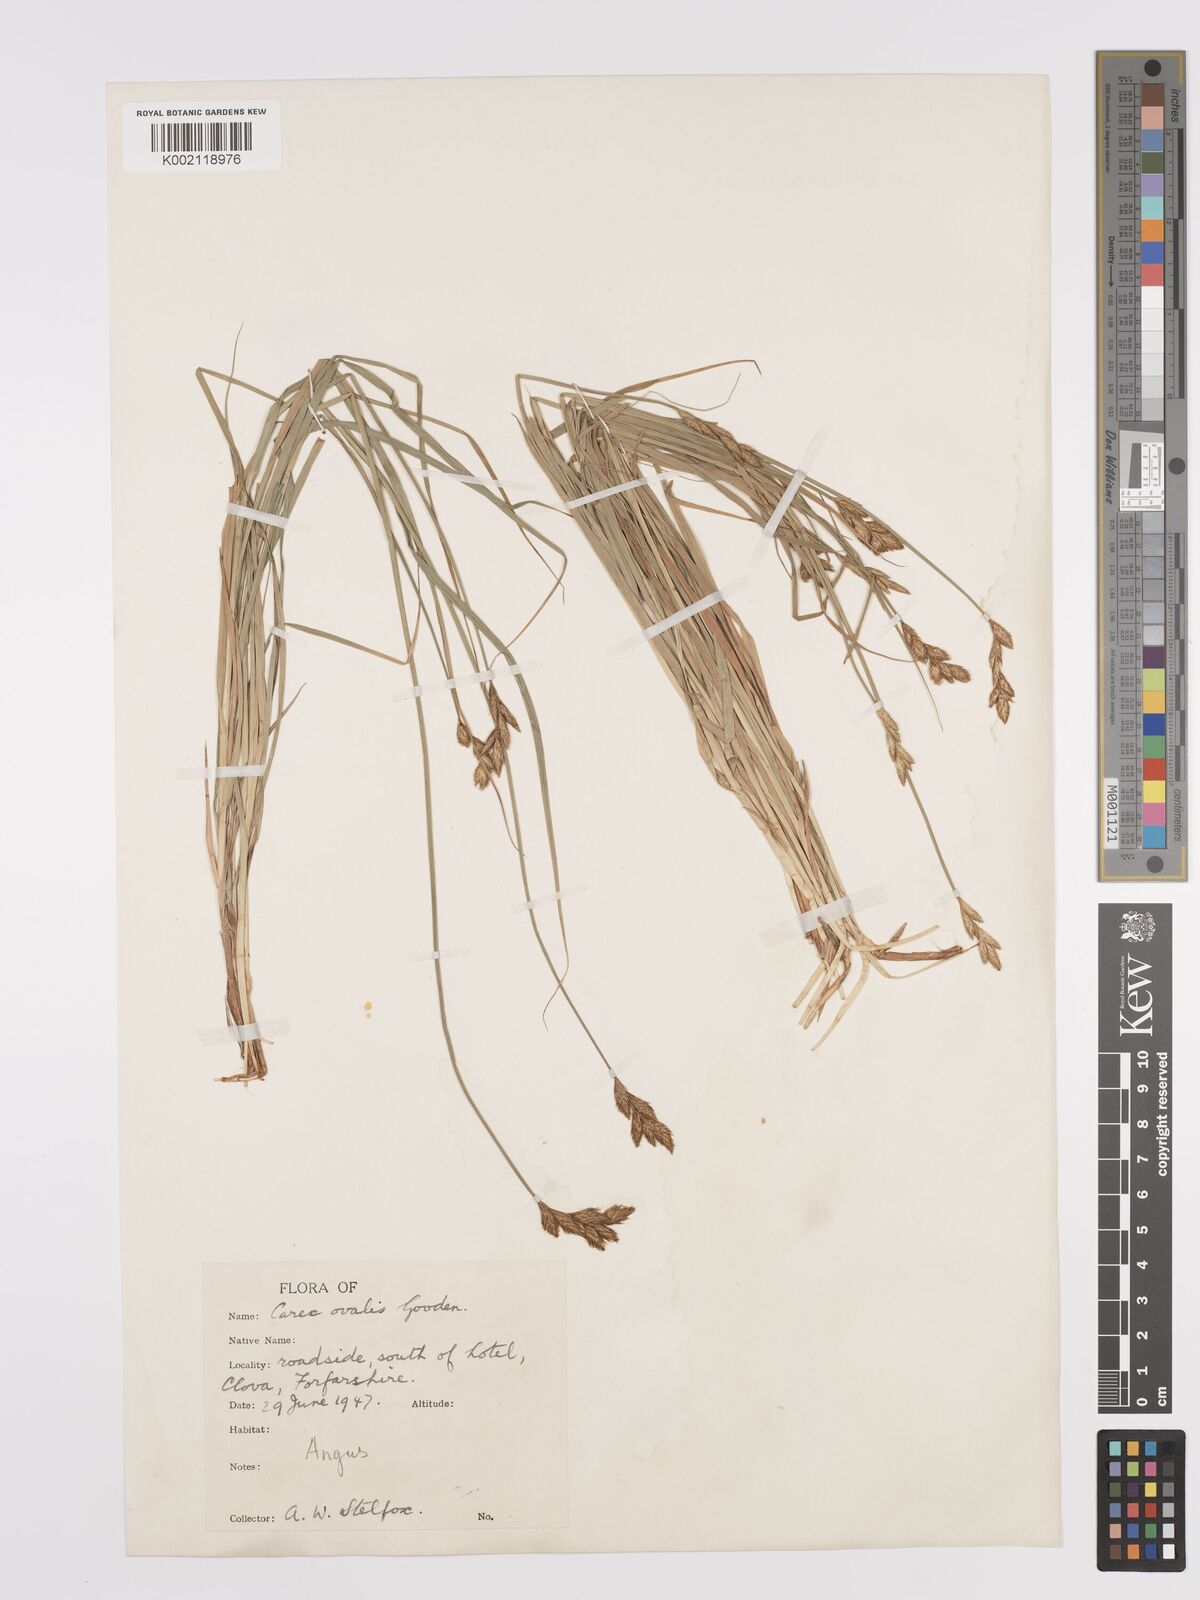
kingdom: Plantae
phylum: Tracheophyta
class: Liliopsida
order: Poales
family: Cyperaceae
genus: Carex
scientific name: Carex leporina
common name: Oval sedge
